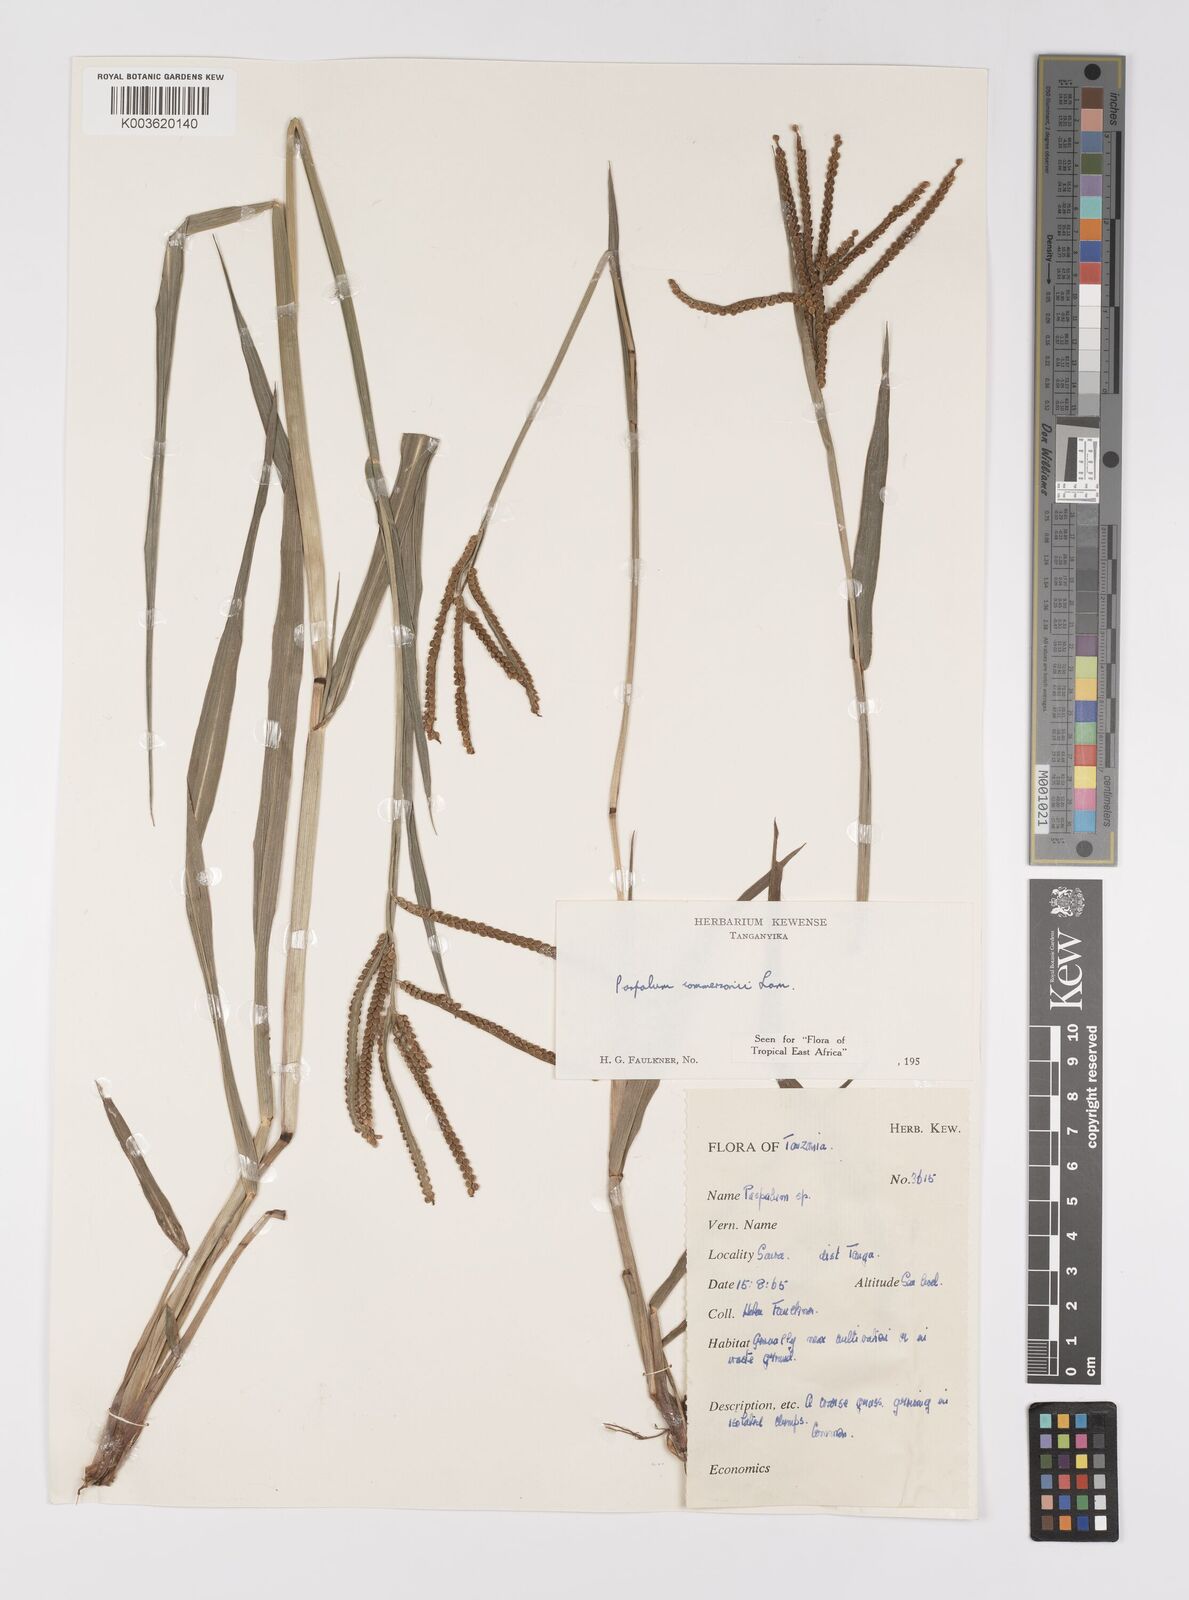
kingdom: Plantae
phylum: Tracheophyta
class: Liliopsida
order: Poales
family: Poaceae
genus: Paspalum
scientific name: Paspalum scrobiculatum
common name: Kodo millet
